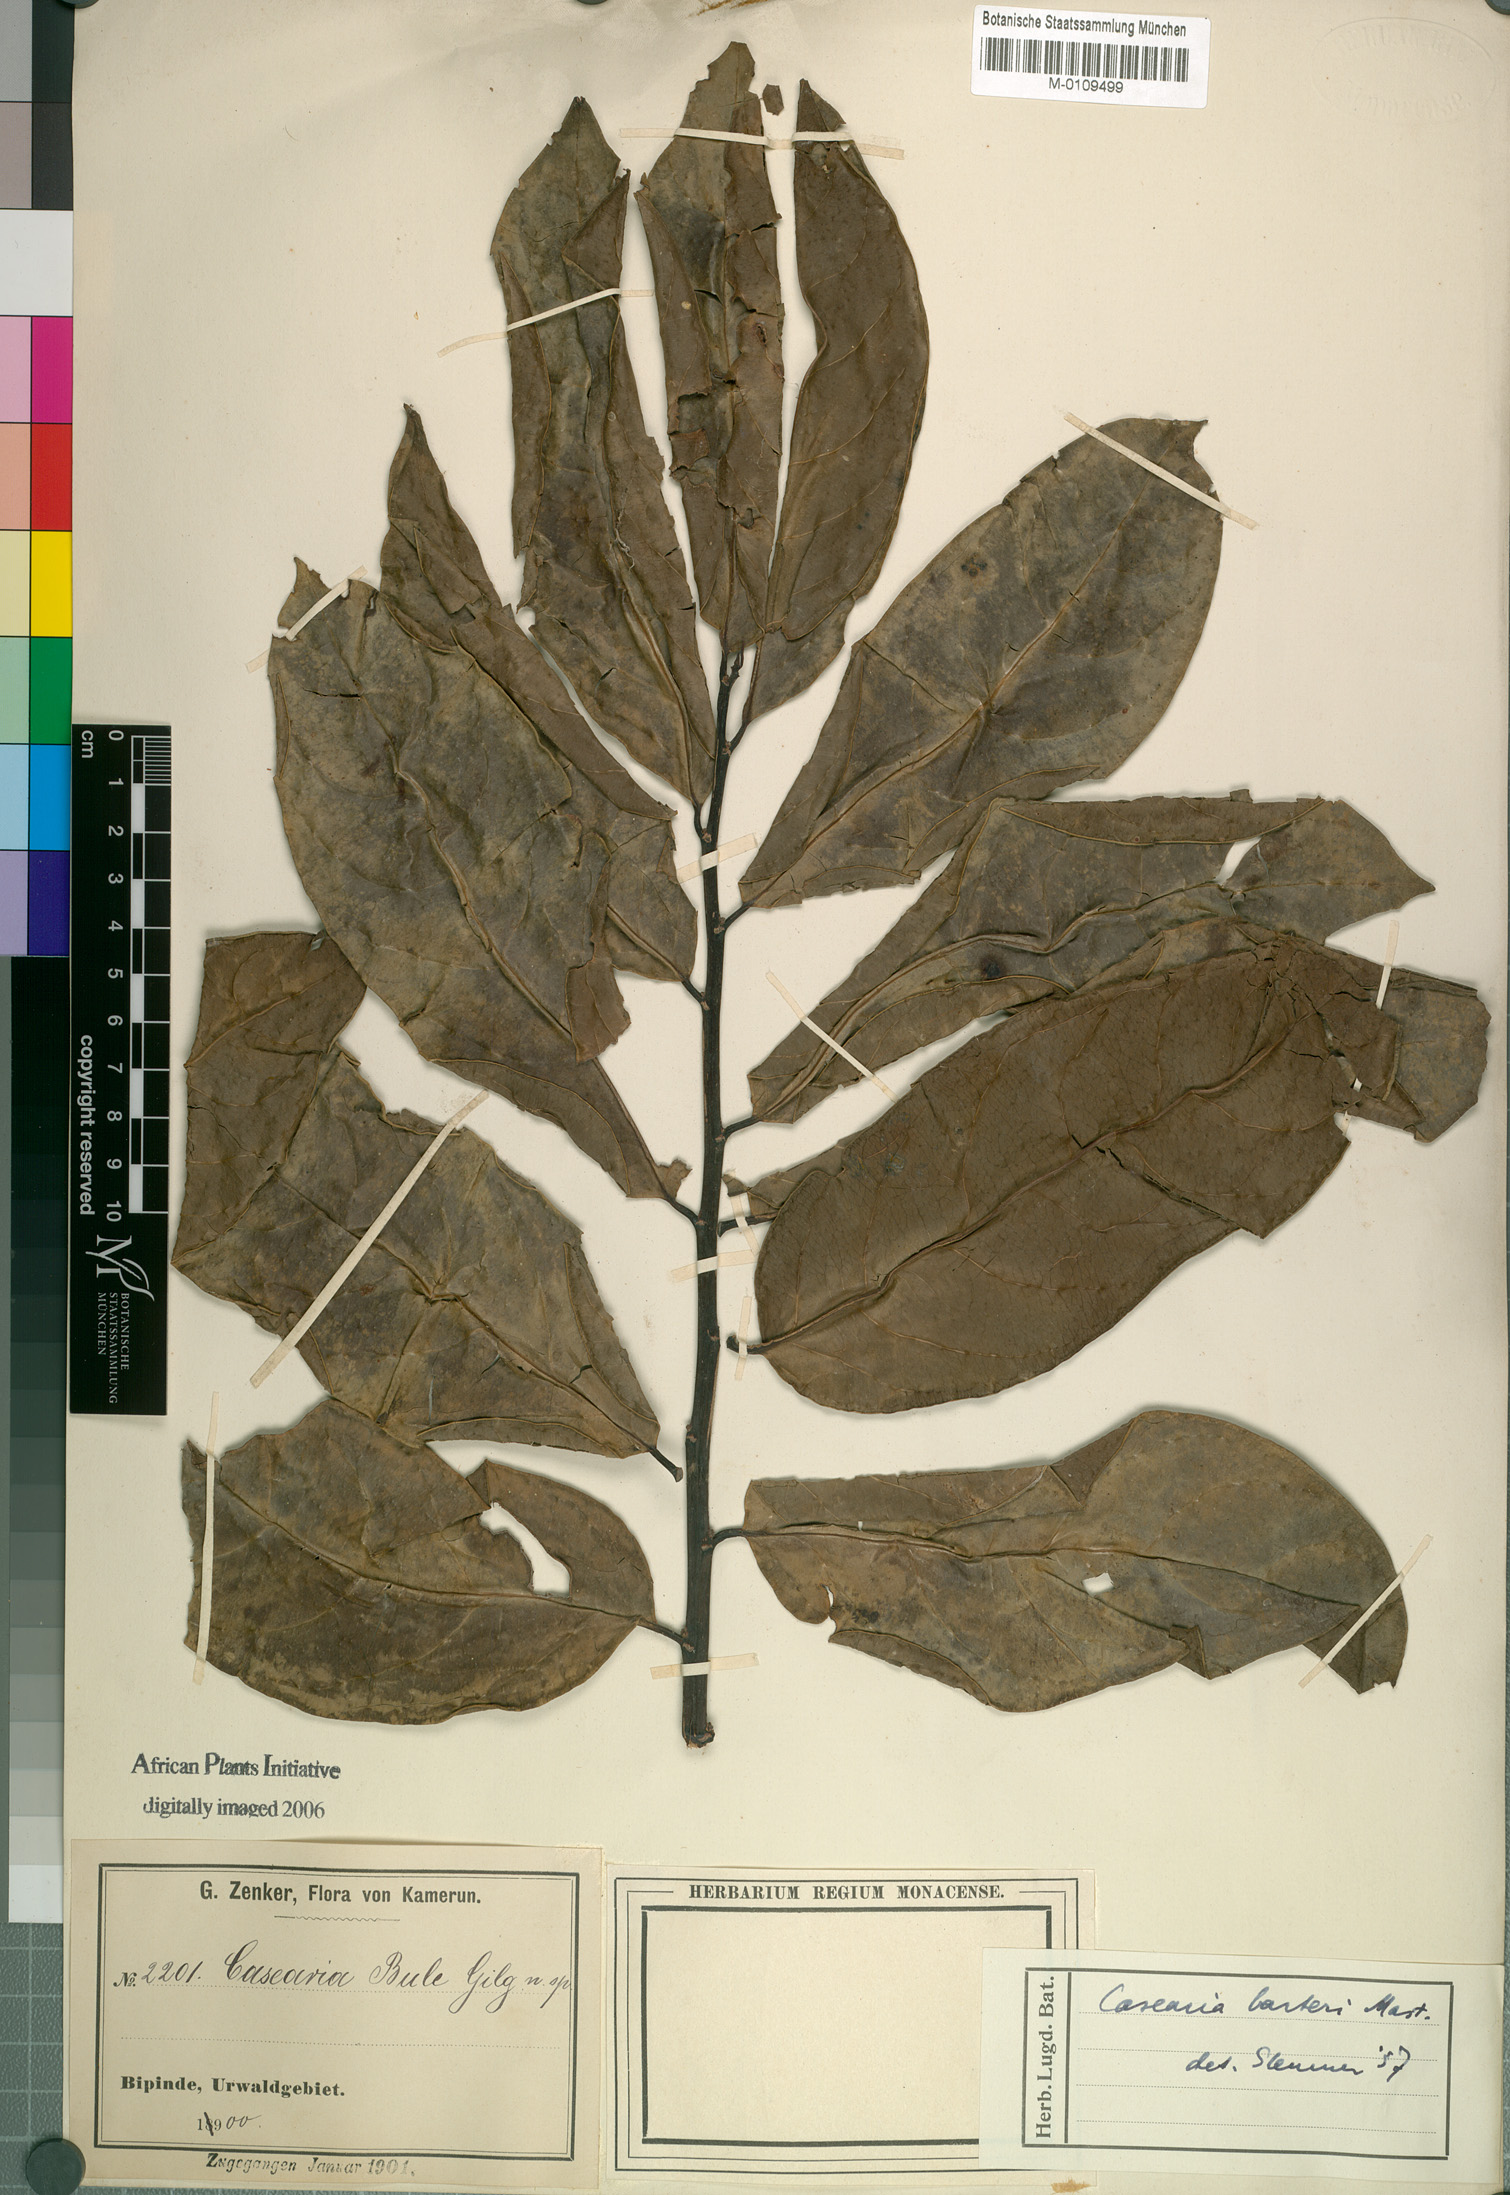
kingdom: Plantae
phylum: Tracheophyta
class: Magnoliopsida
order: Malpighiales
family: Salicaceae
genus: Casearia
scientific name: Casearia barteri
